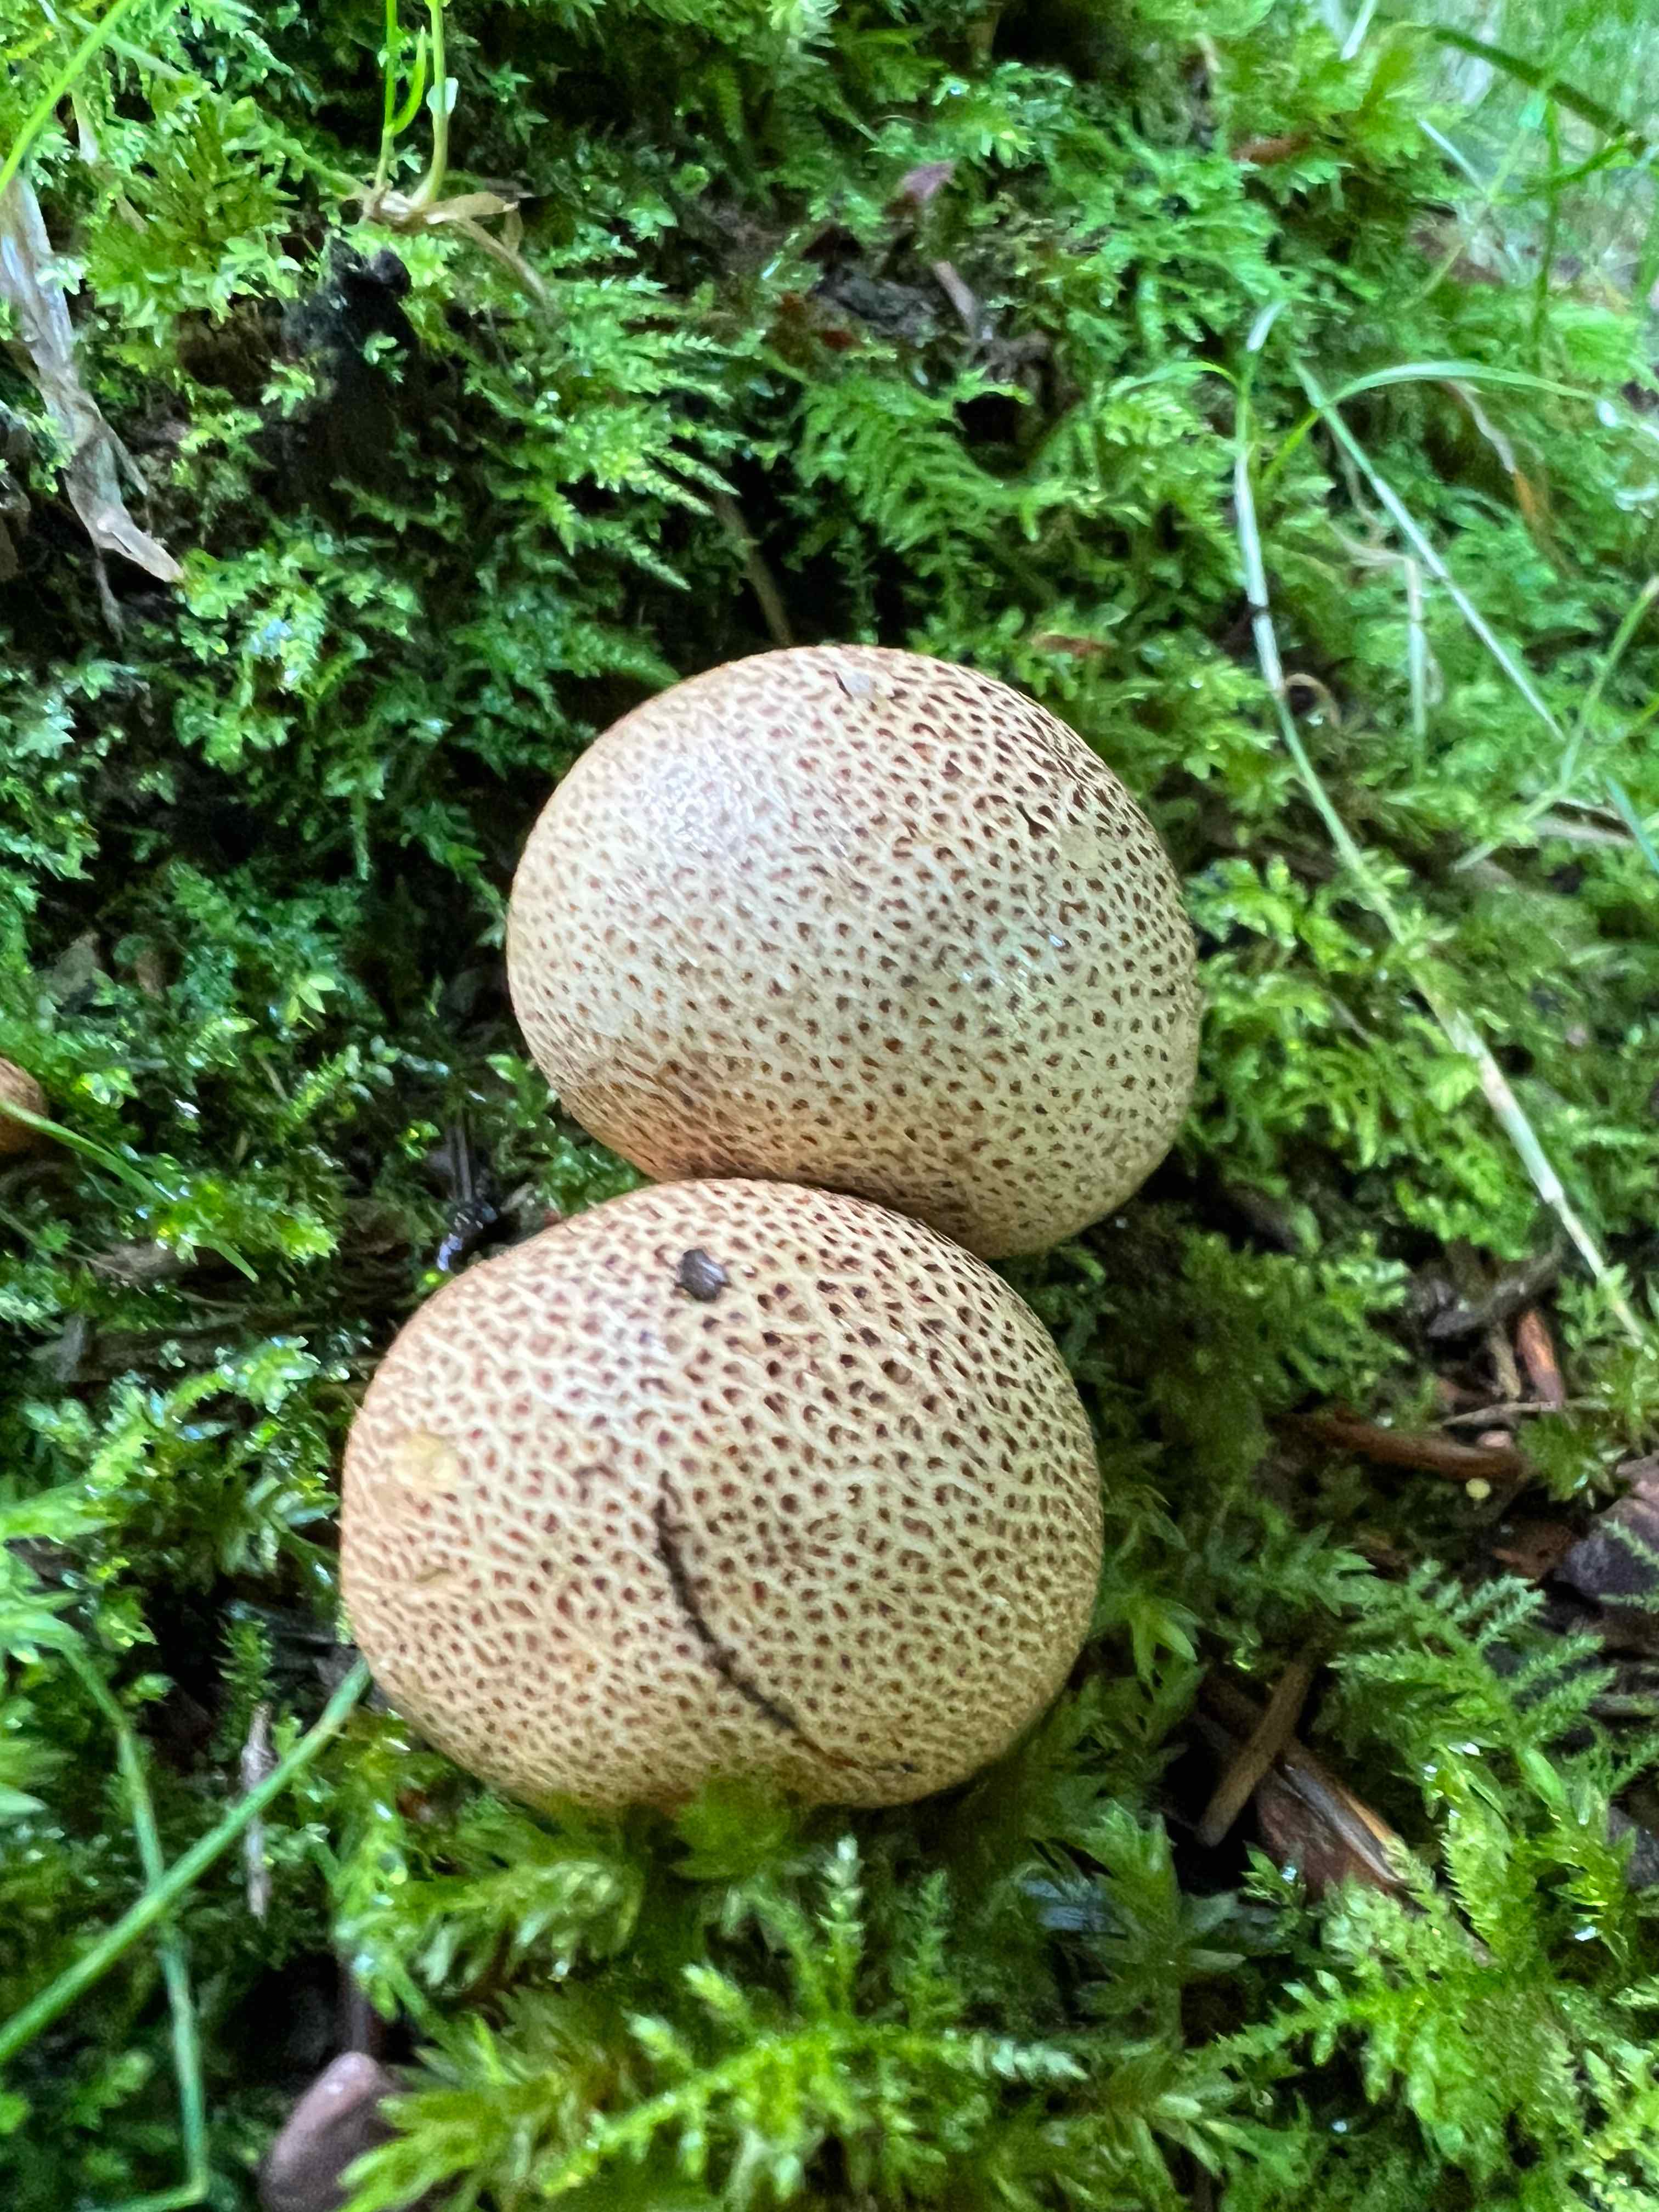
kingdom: Fungi
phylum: Basidiomycota
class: Agaricomycetes
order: Boletales
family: Sclerodermataceae
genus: Scleroderma
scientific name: Scleroderma citrinum
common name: almindelig bruskbold
